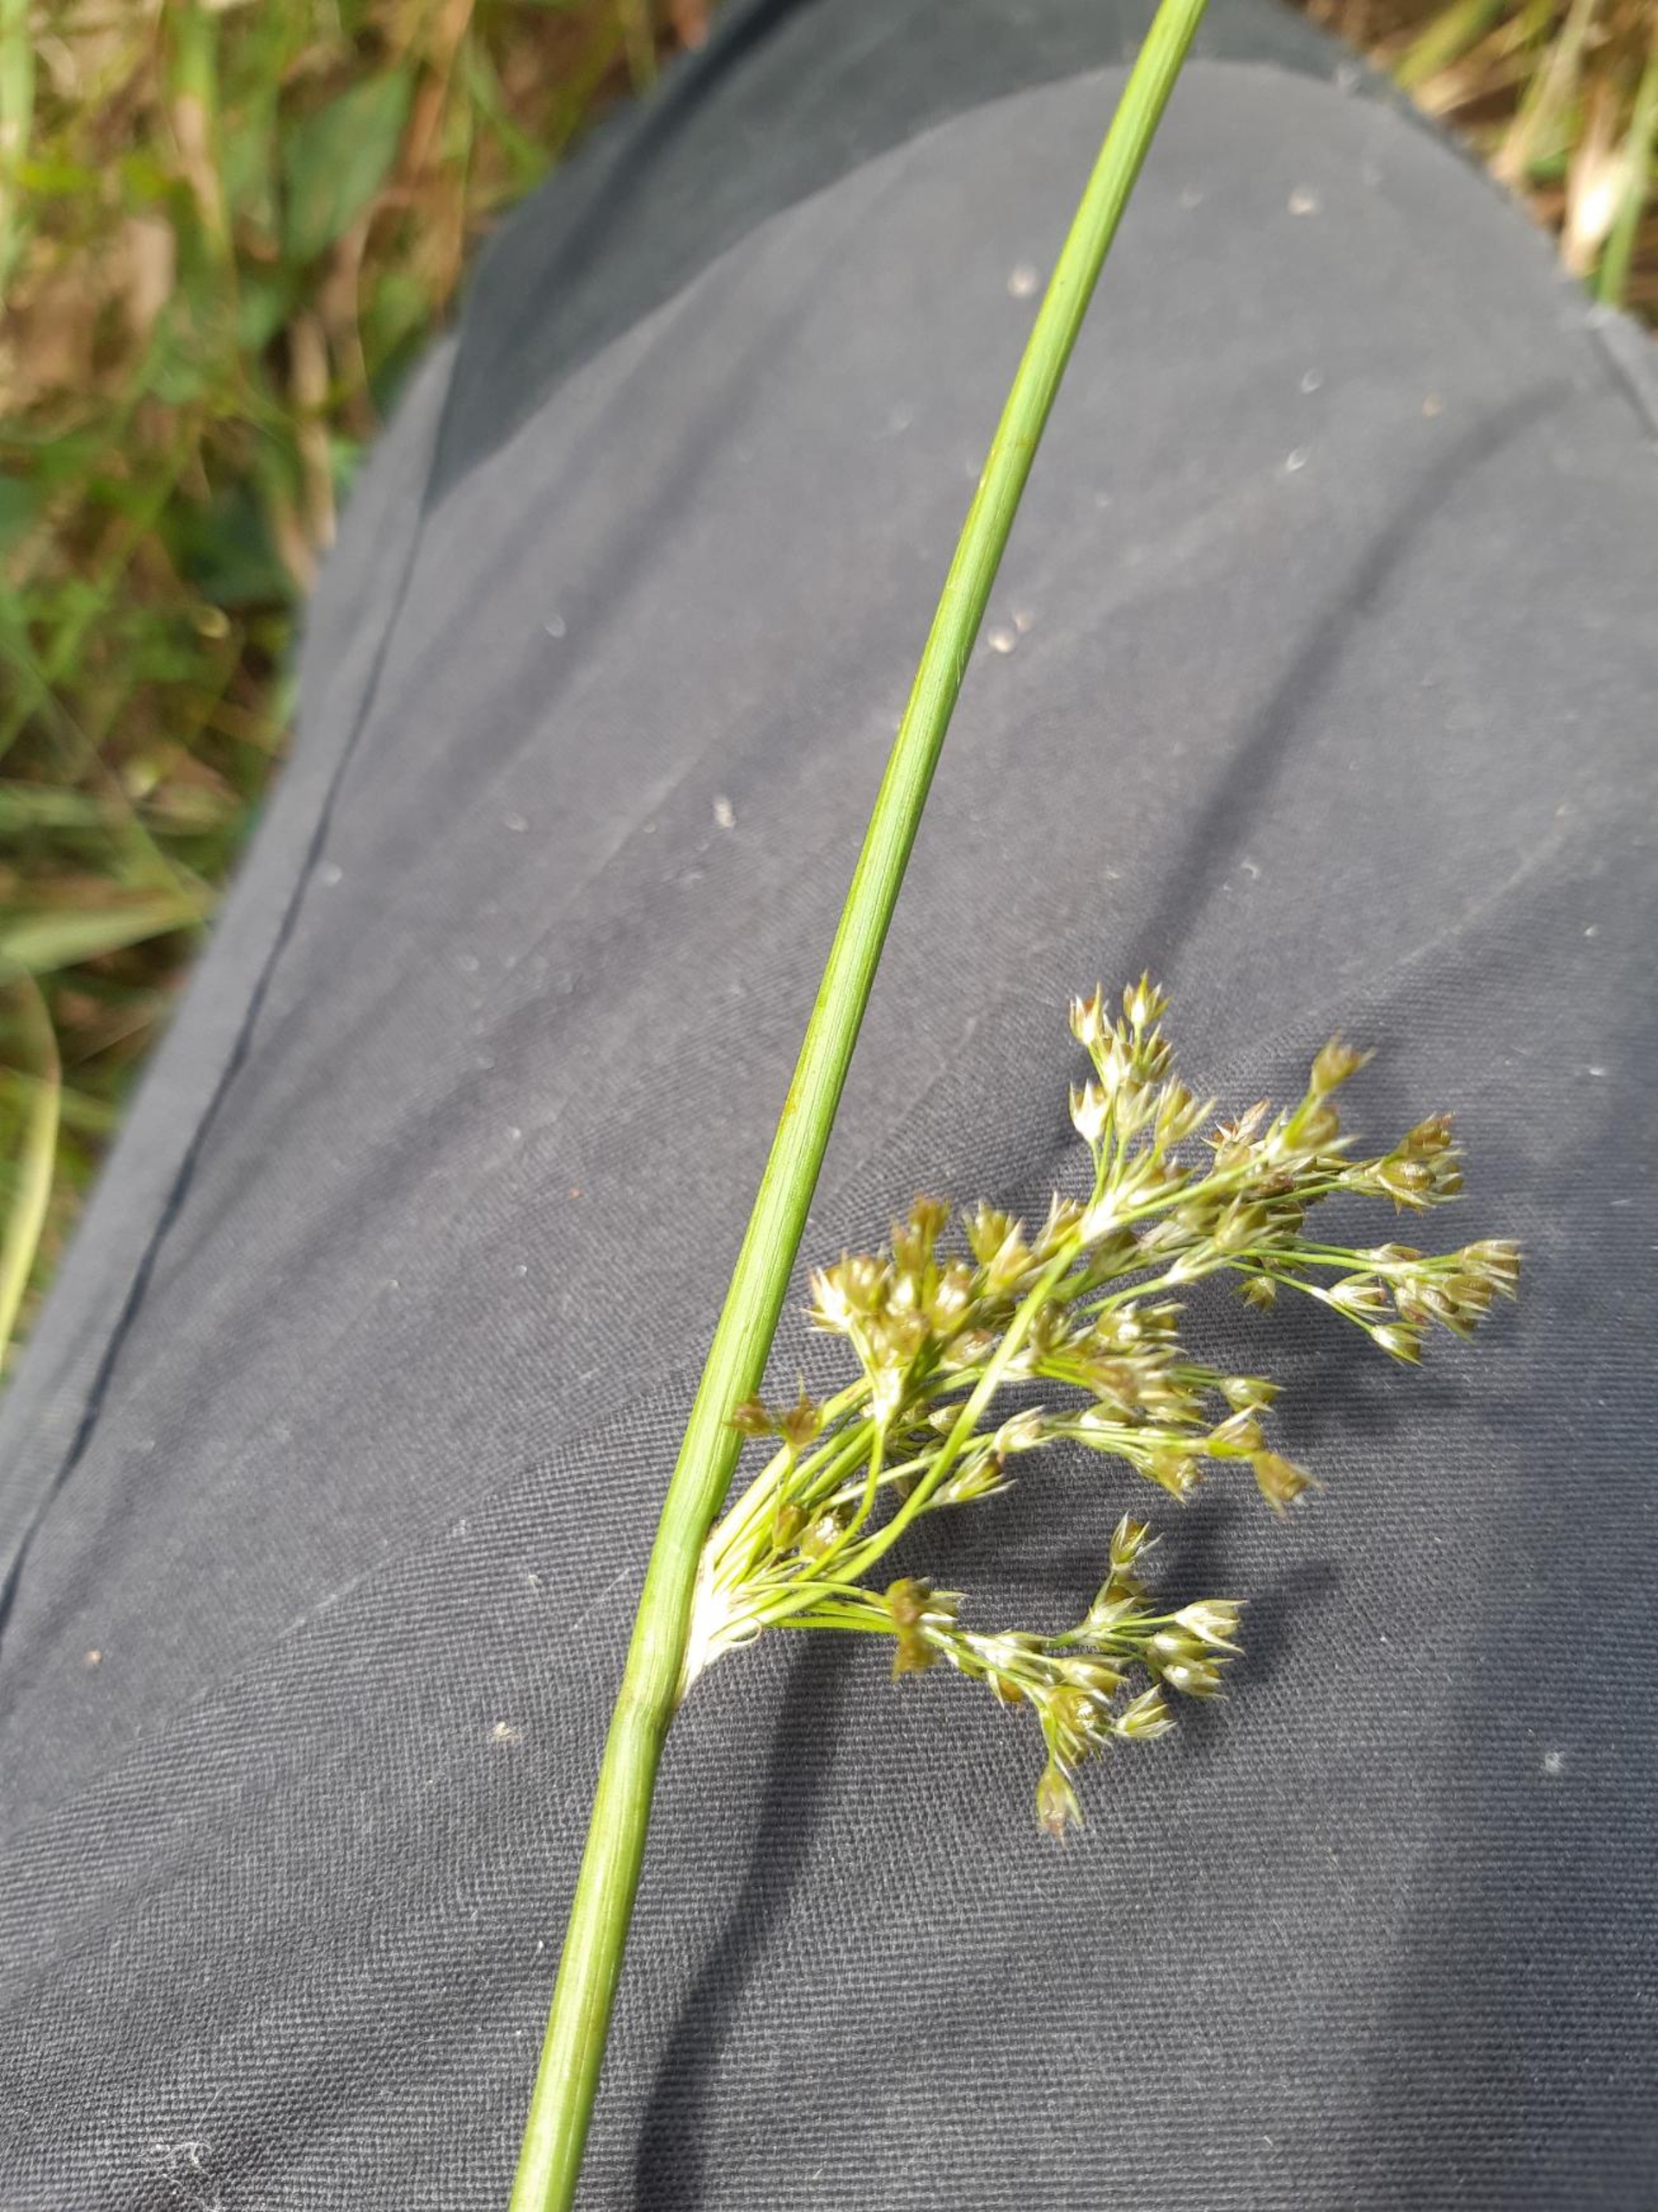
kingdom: Plantae
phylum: Tracheophyta
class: Liliopsida
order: Poales
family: Juncaceae
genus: Juncus
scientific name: Juncus effusus
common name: Lyse-siv
